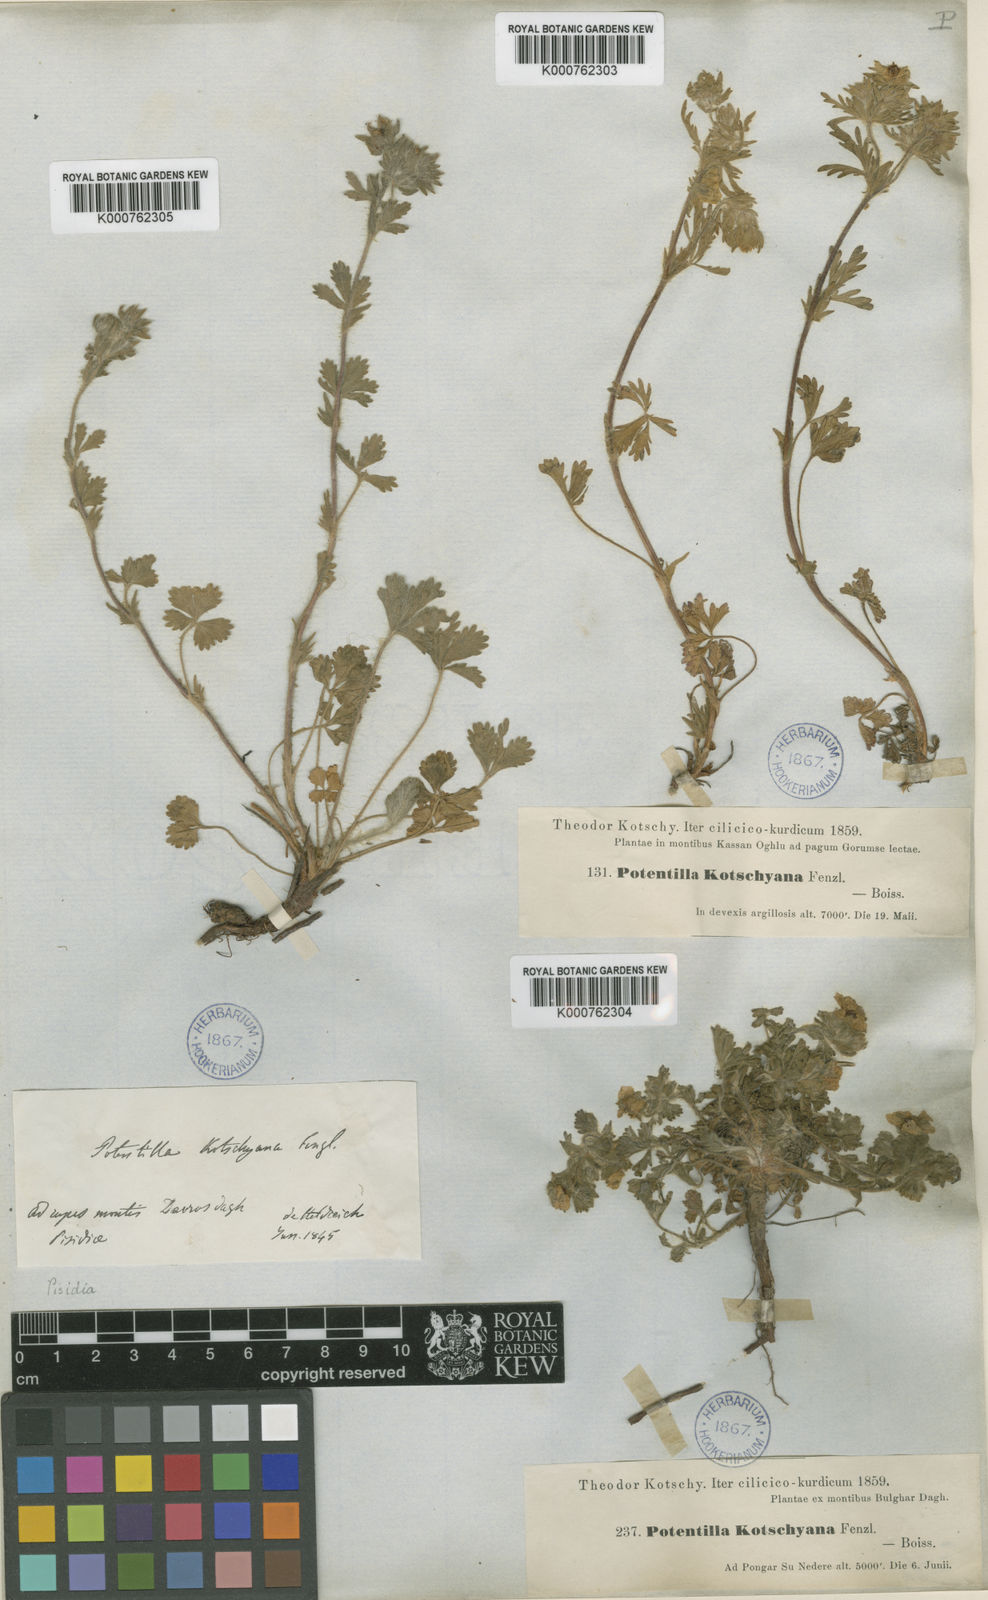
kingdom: Plantae
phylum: Tracheophyta
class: Magnoliopsida
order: Rosales
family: Rosaceae
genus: Potentilla
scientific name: Potentilla kotschyana
